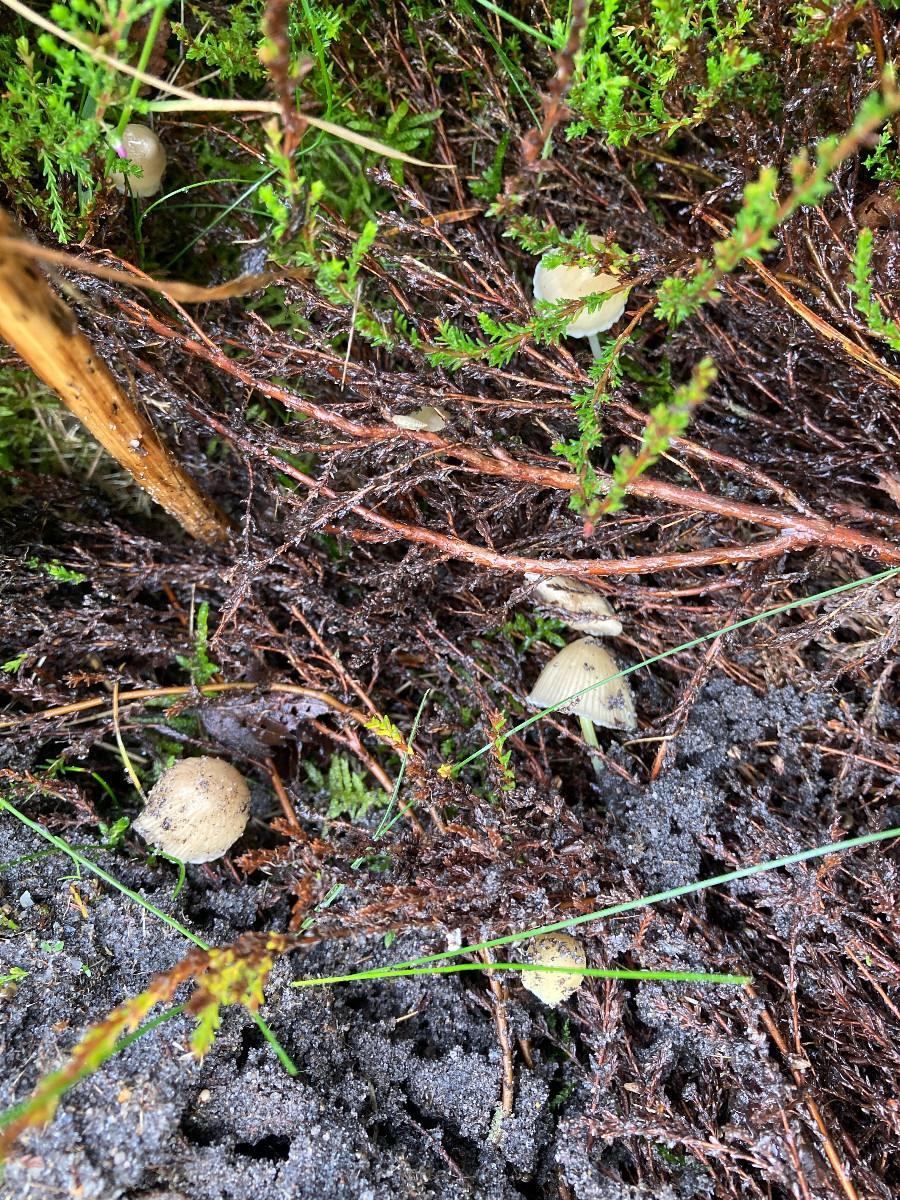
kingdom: Fungi
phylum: Basidiomycota
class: Agaricomycetes
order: Agaricales
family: Mycenaceae
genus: Mycena
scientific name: Mycena epipterygia
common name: gulstokket huesvamp
